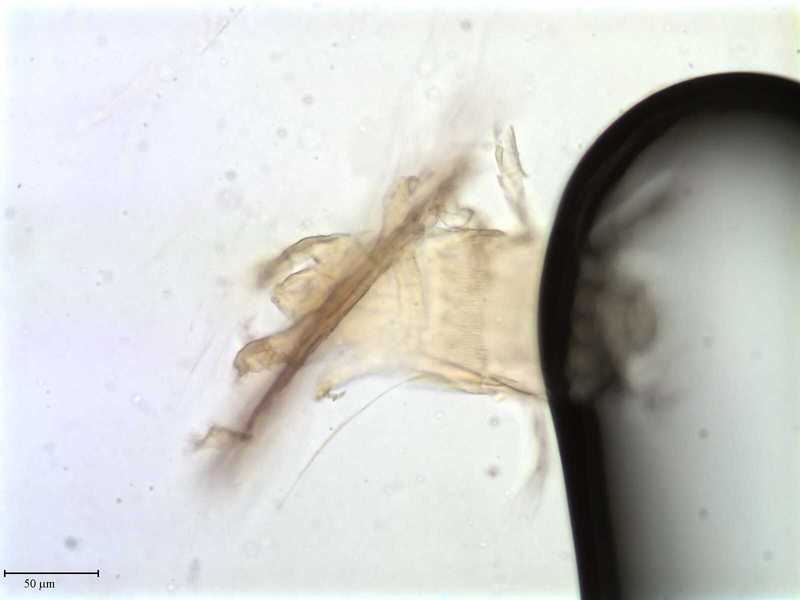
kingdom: Animalia
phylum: Arthropoda
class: Arachnida
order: Trombidiformes
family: Pyemotidae
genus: Pyemotes
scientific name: Pyemotes dryas
